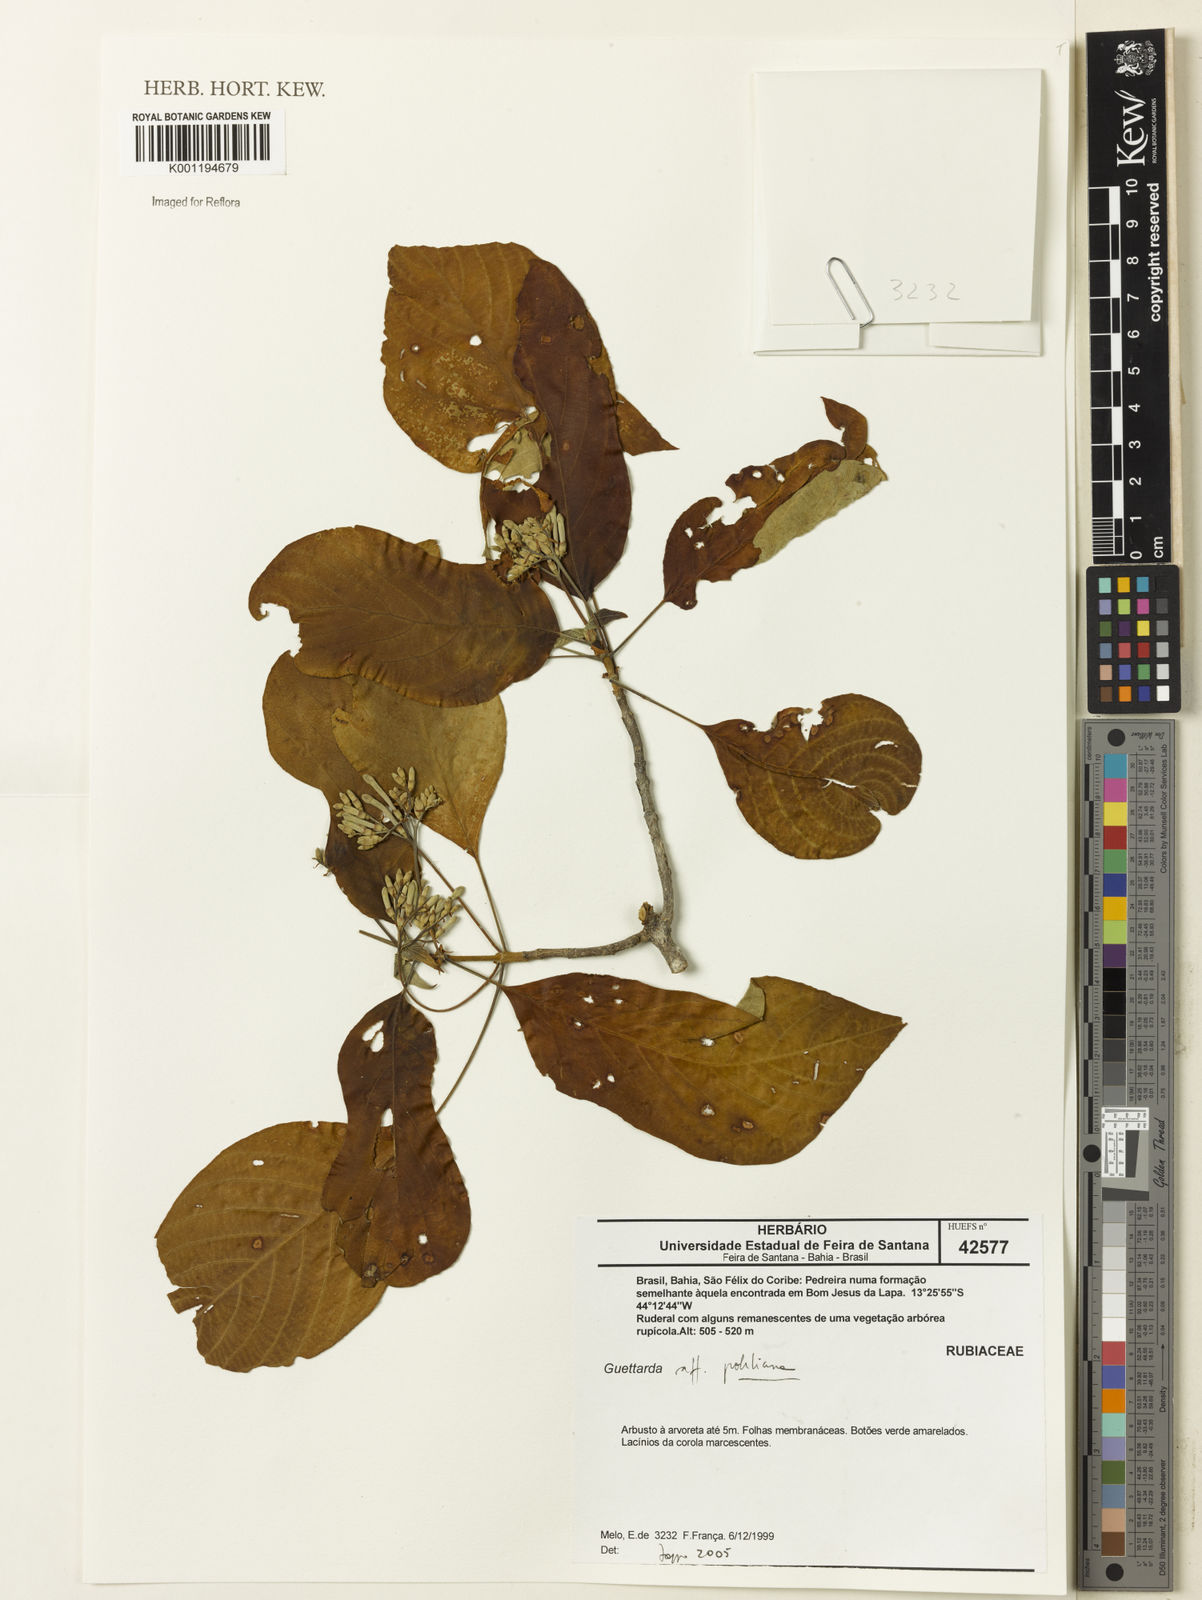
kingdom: Plantae
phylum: Tracheophyta
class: Magnoliopsida
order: Gentianales
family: Rubiaceae
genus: Guettarda
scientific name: Guettarda
